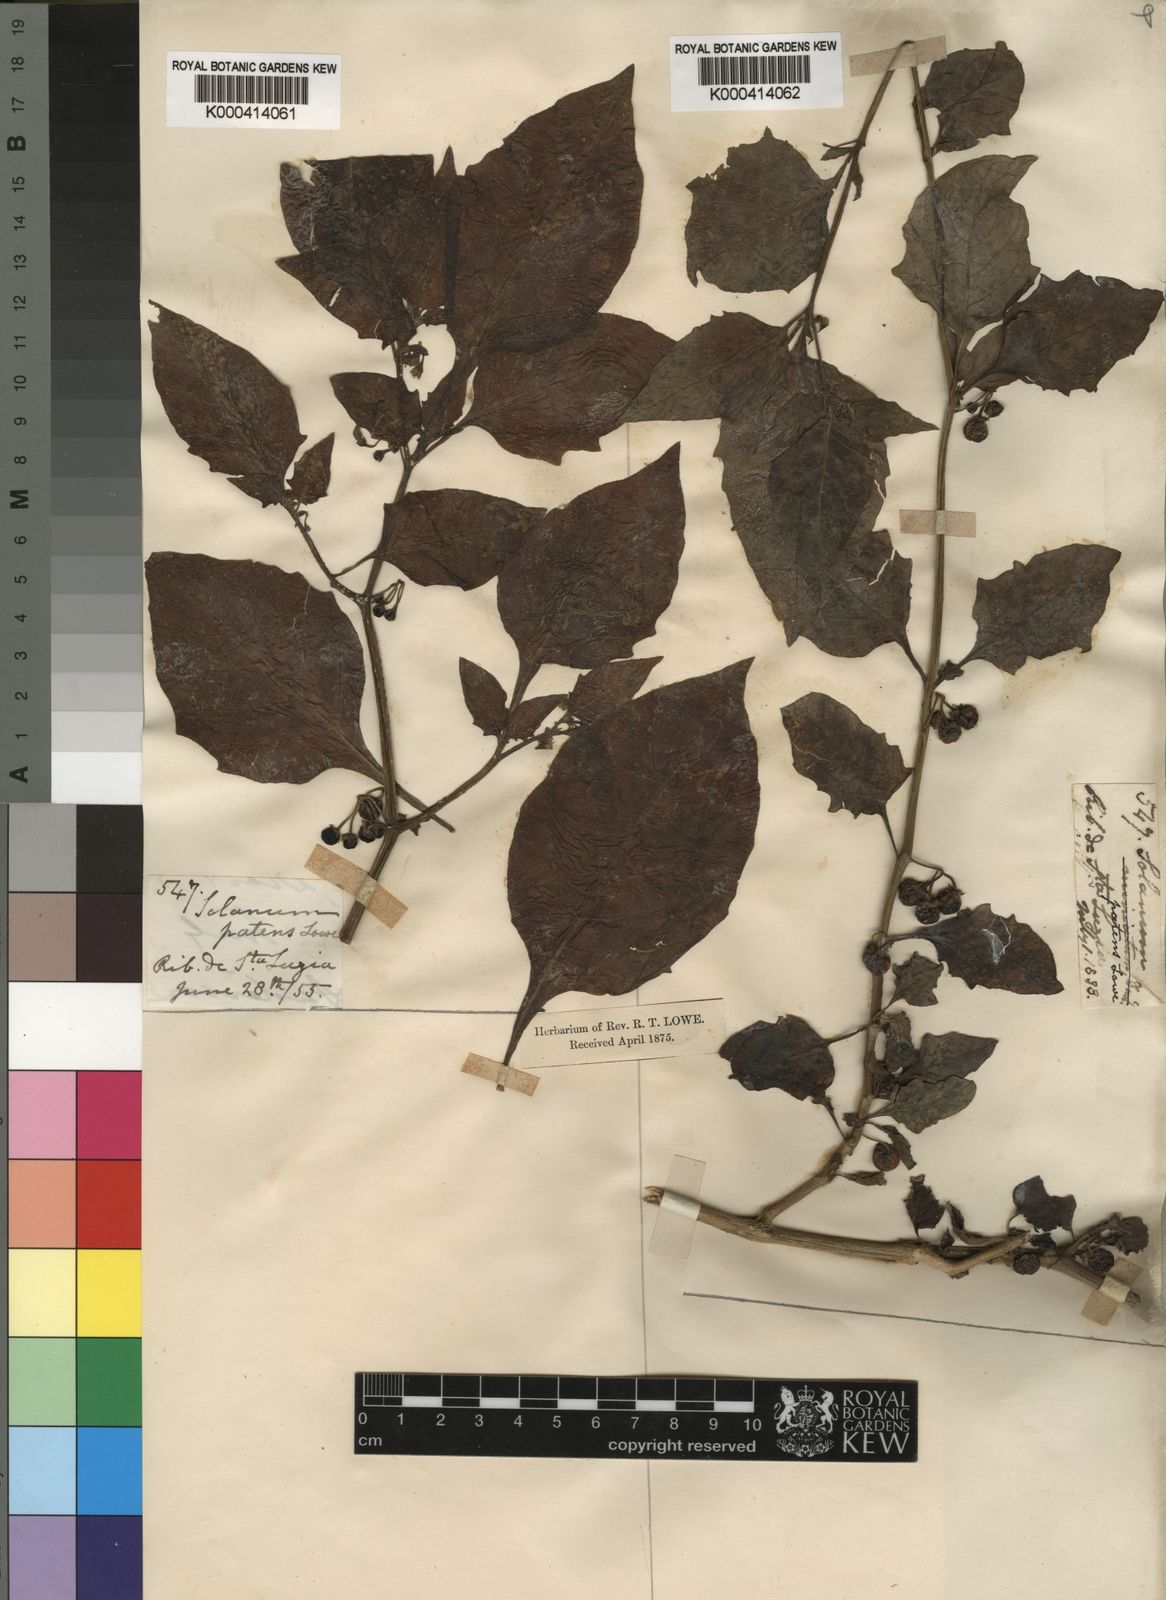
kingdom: Plantae
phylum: Tracheophyta
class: Magnoliopsida
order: Solanales
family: Solanaceae
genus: Solanum
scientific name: Solanum nigrum
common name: Black nightshade
